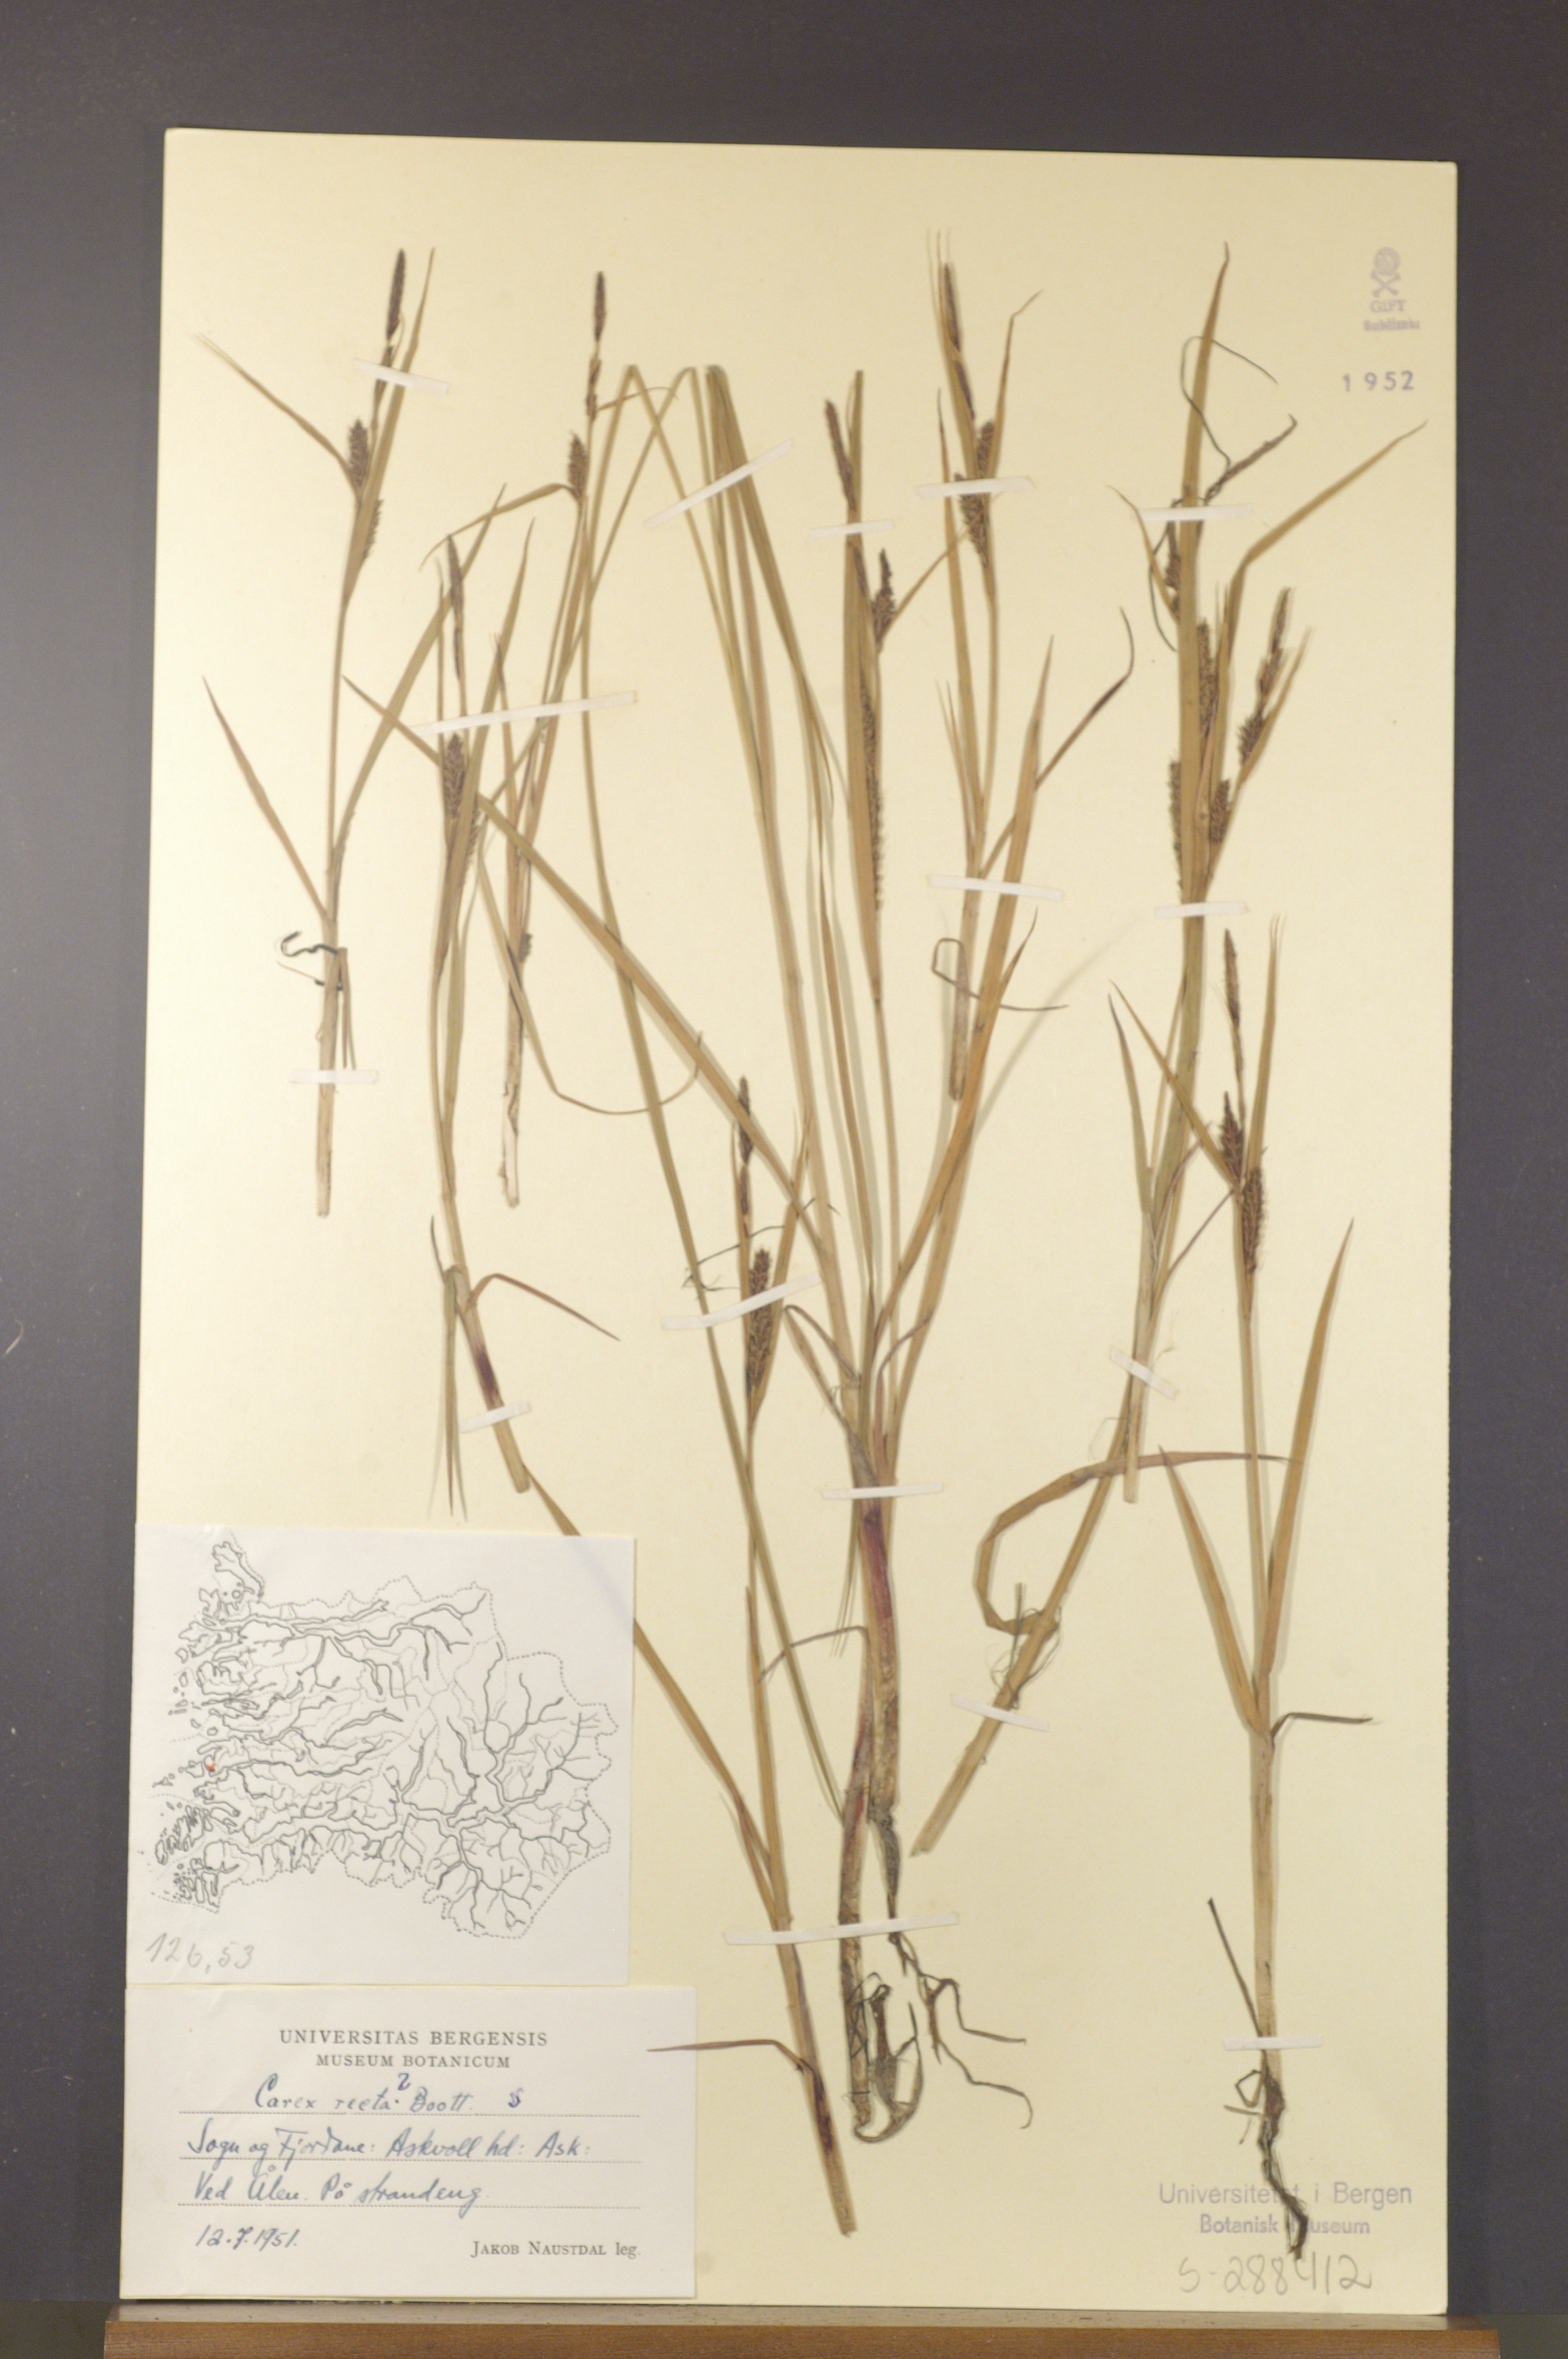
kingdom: Plantae
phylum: Tracheophyta
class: Liliopsida
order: Poales
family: Cyperaceae
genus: Carex
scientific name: Carex recta
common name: Estuarine sedge
